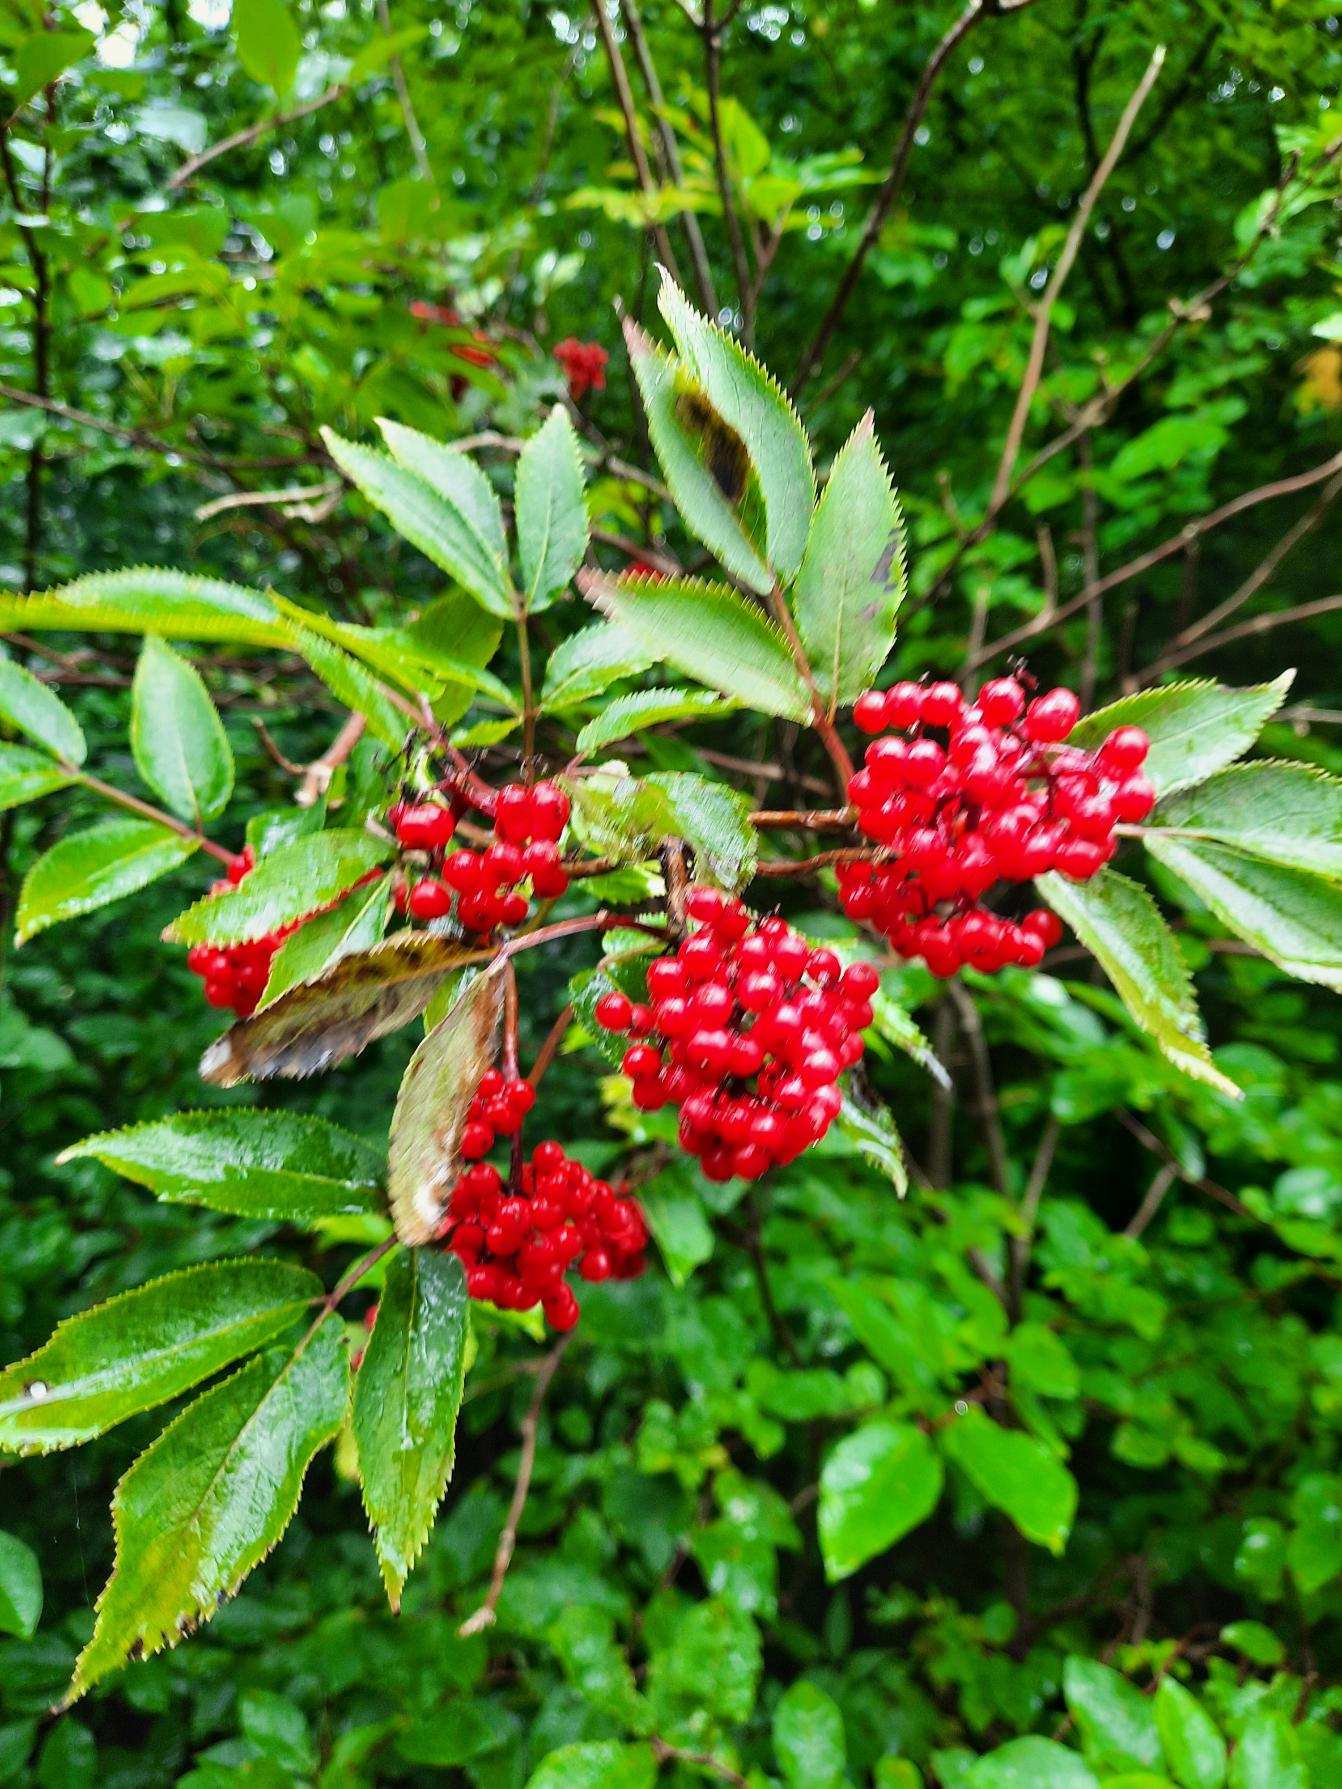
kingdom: Plantae
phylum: Tracheophyta
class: Magnoliopsida
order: Dipsacales
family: Viburnaceae
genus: Sambucus
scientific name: Sambucus racemosa
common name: Drue-hyld
